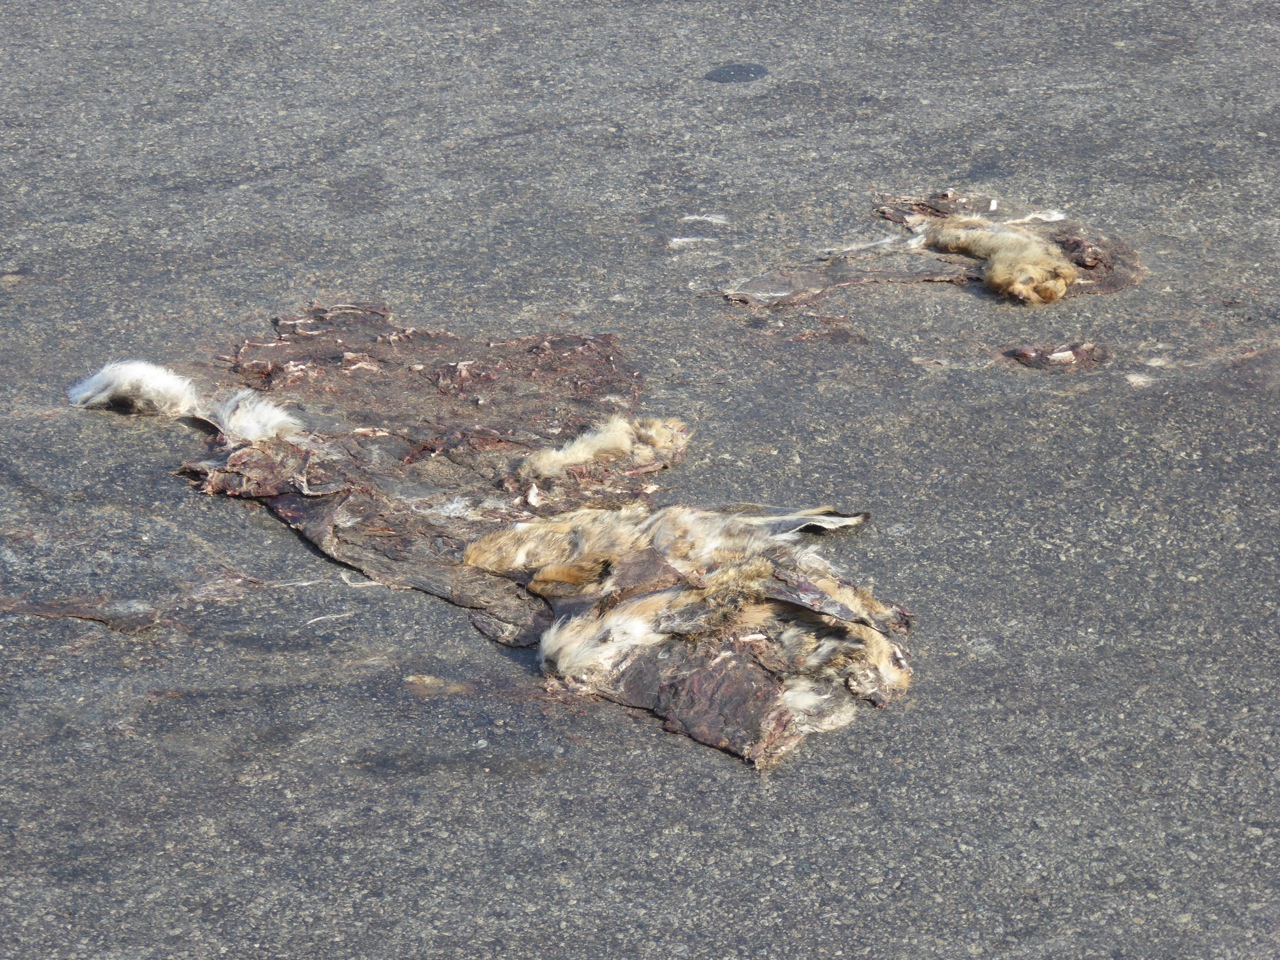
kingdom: Animalia
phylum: Chordata
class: Mammalia
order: Carnivora
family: Canidae
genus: Canis
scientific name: Canis lupus
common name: Gray wolf
